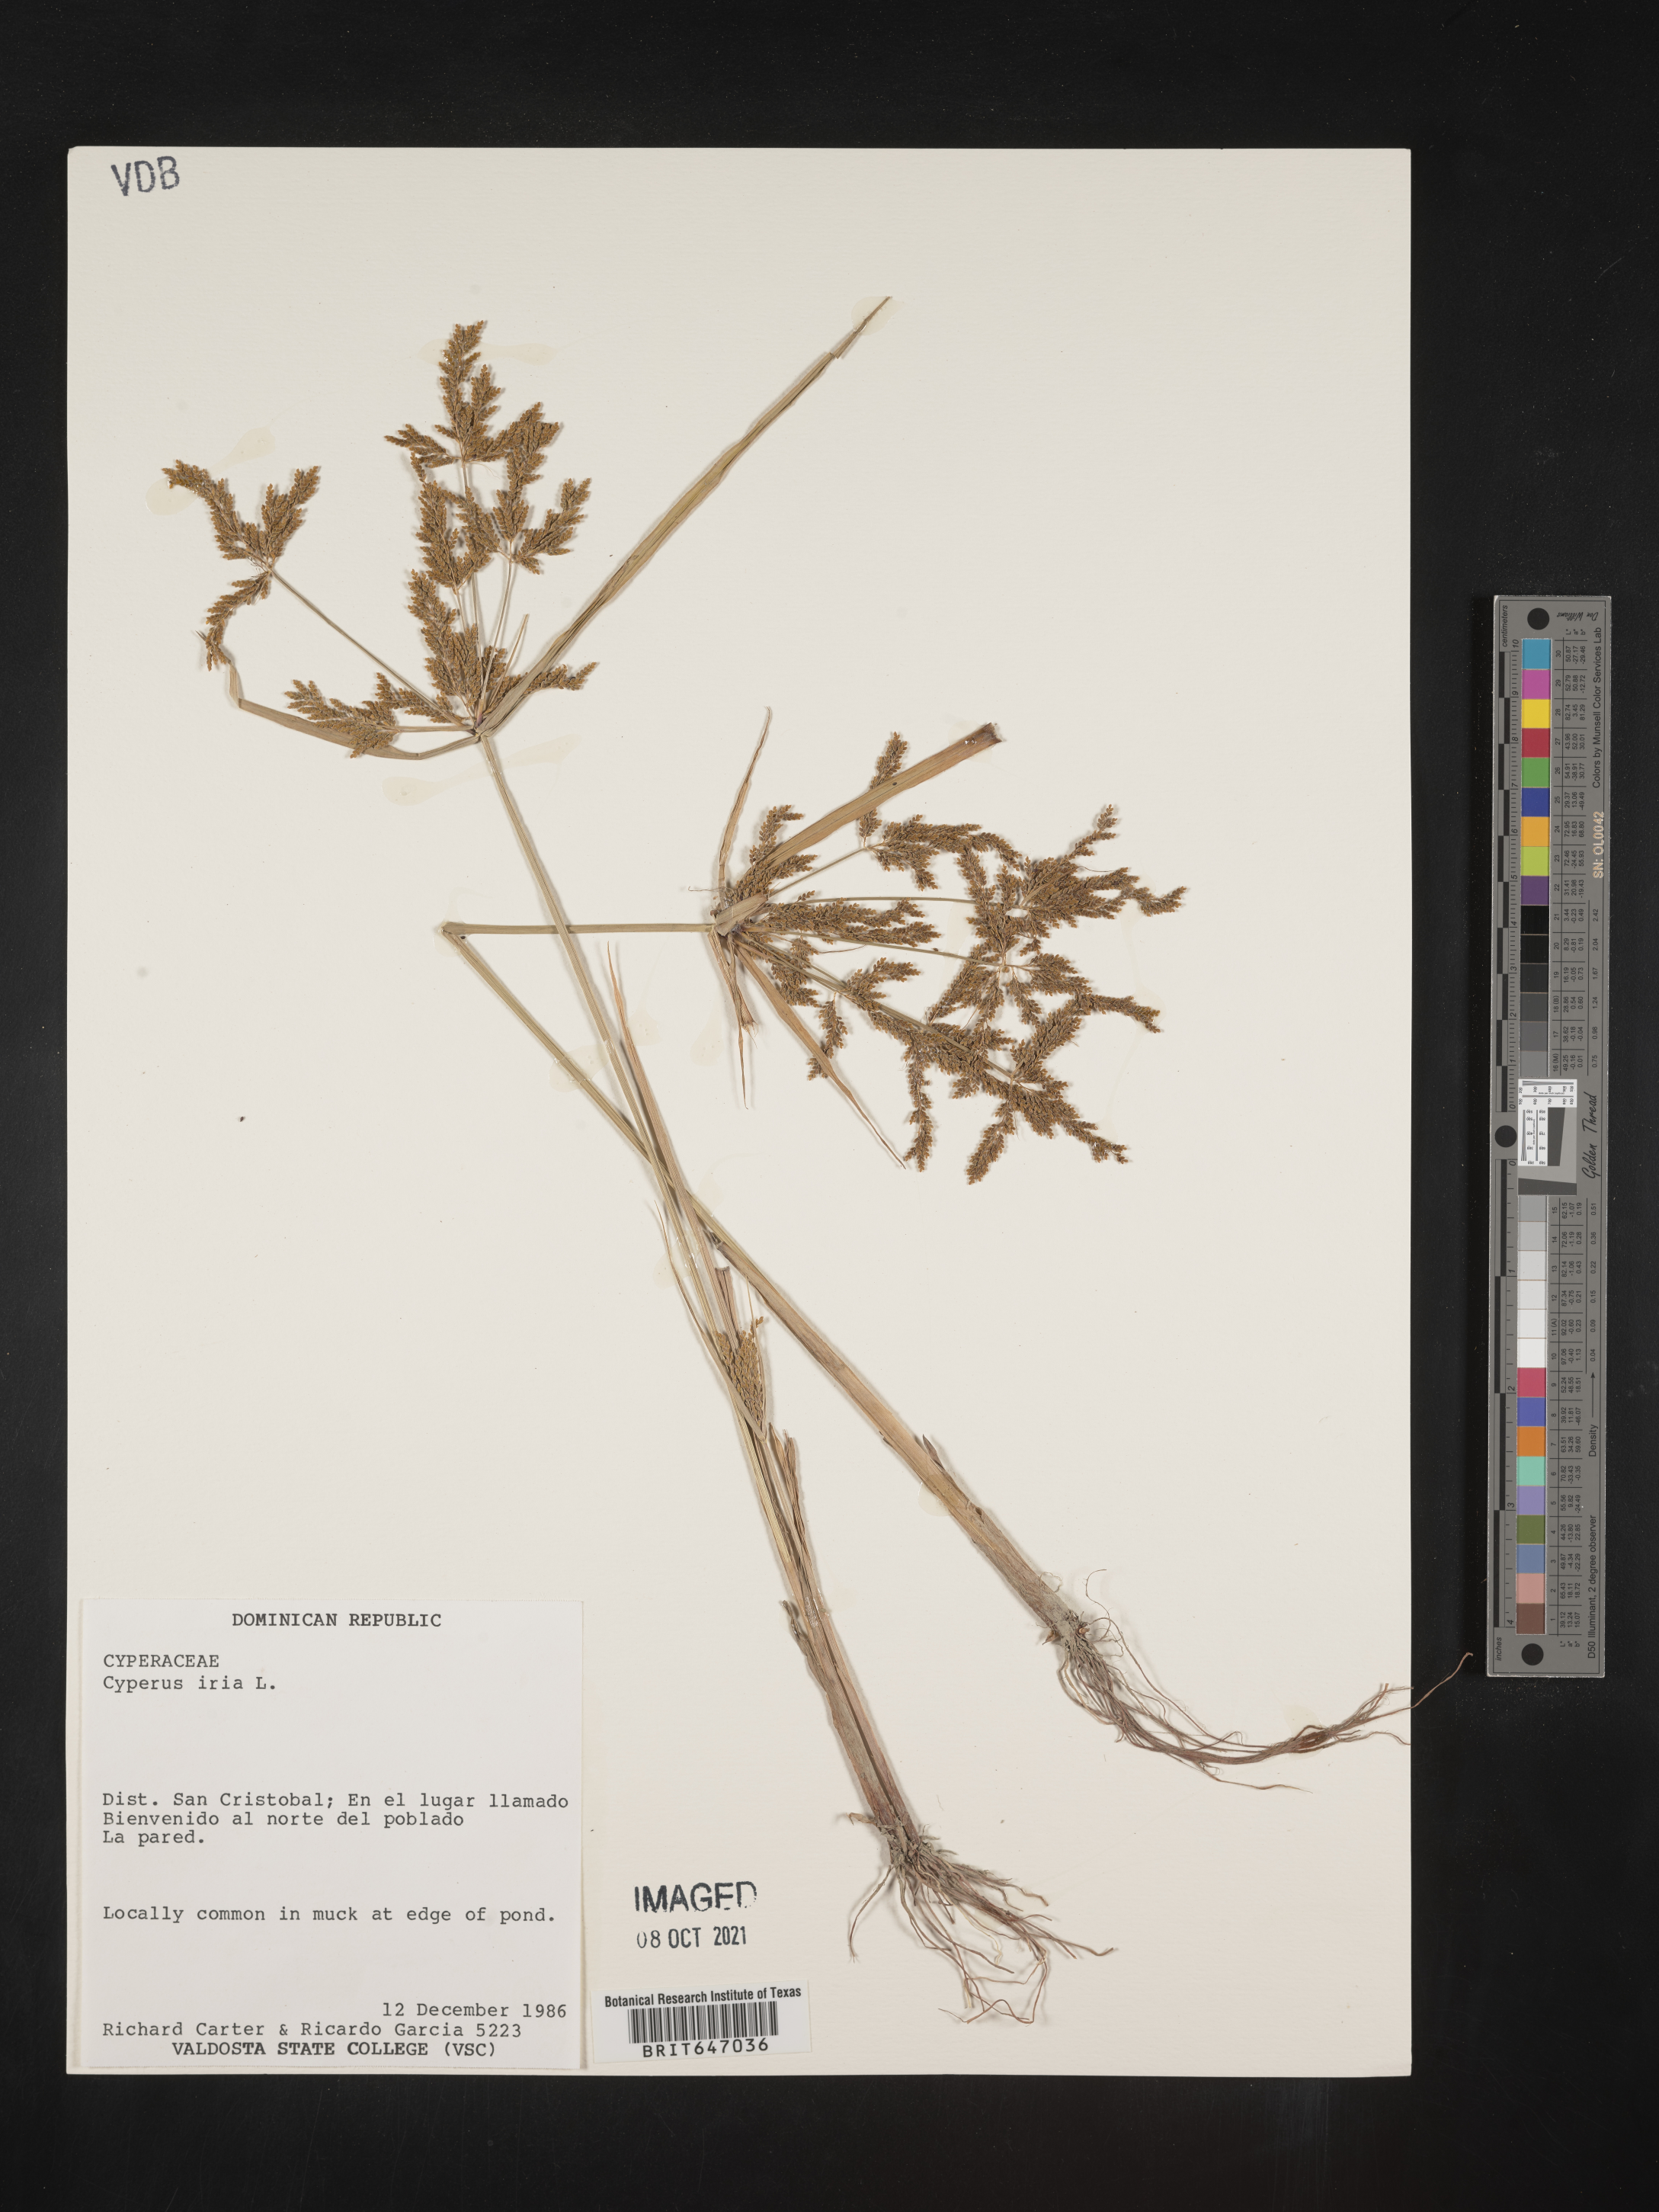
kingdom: Plantae
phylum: Tracheophyta
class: Liliopsida
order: Poales
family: Cyperaceae
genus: Cyperus
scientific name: Cyperus iria
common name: Ricefield flatsedge
